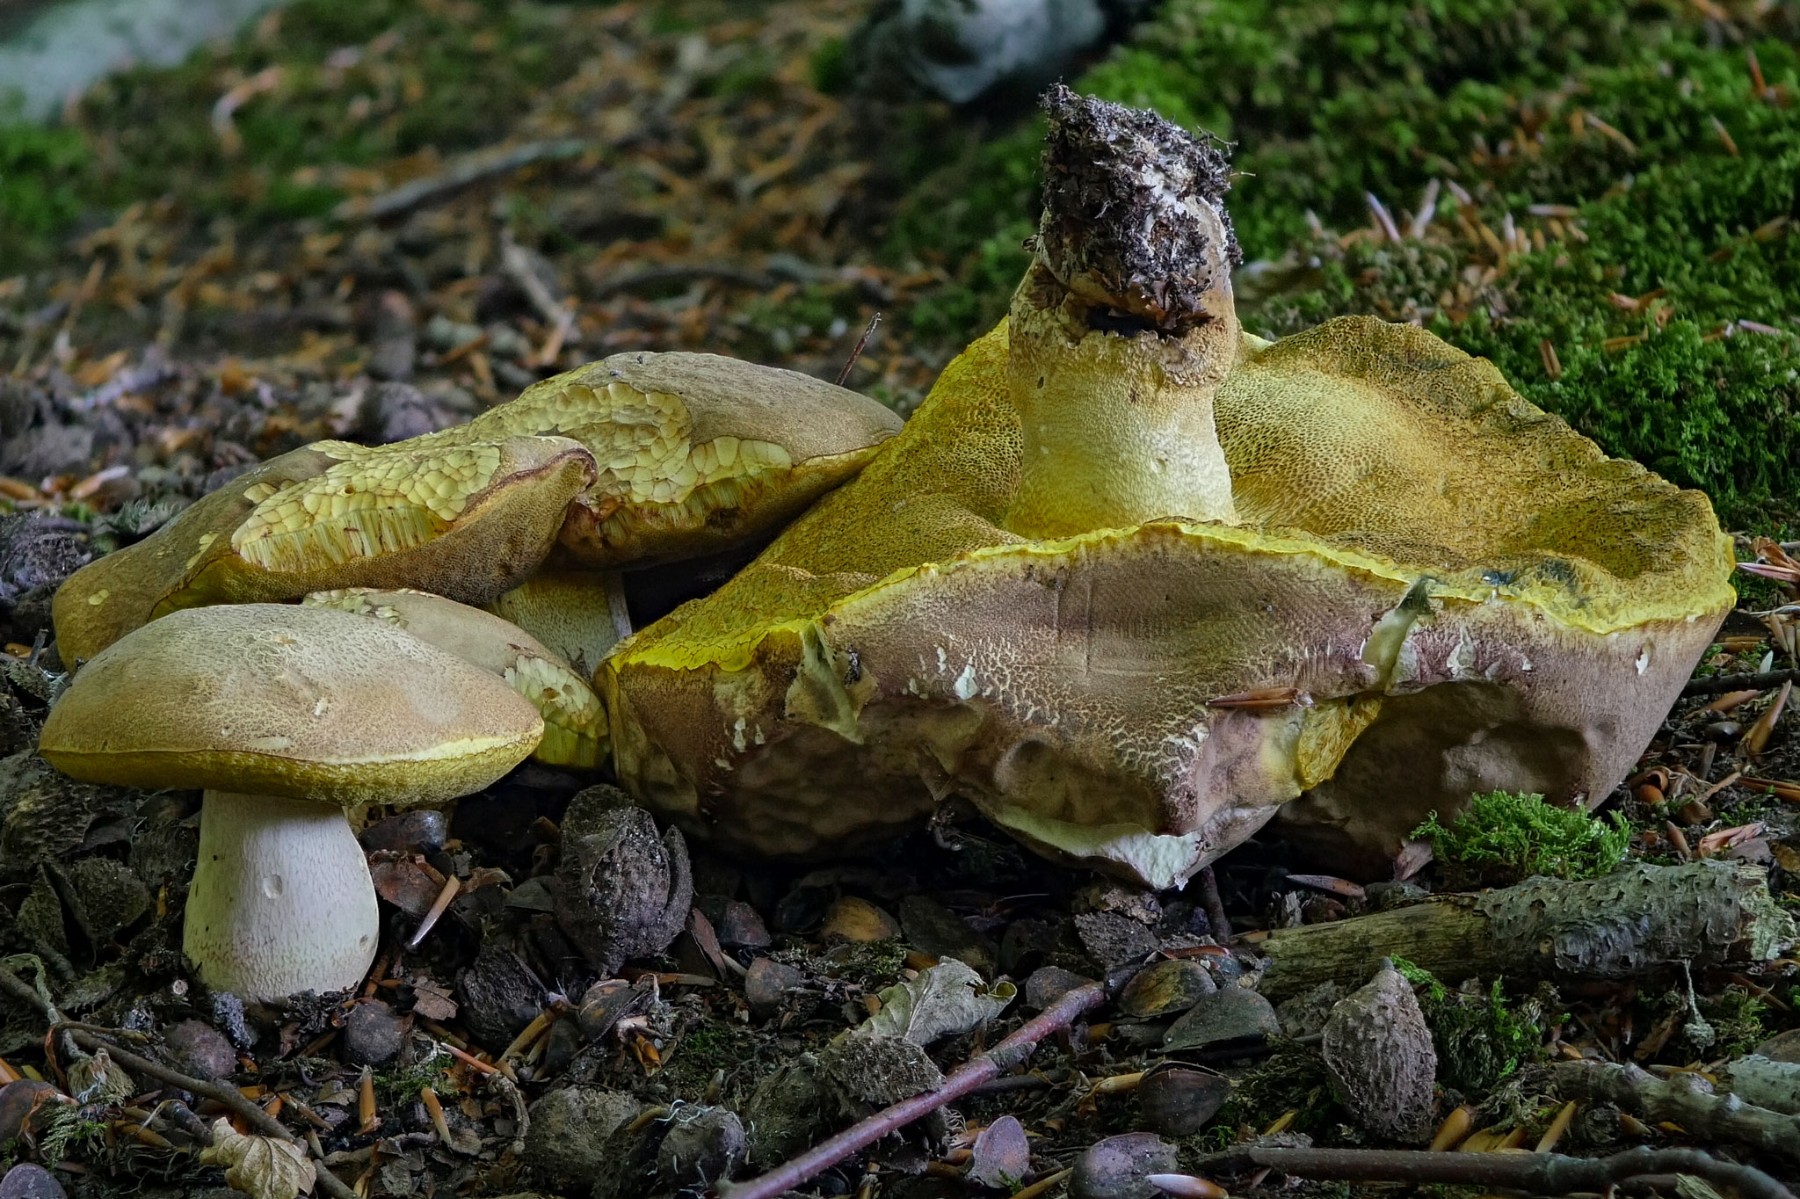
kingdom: Fungi
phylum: Basidiomycota
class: Agaricomycetes
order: Boletales
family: Boletaceae
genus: Butyriboletus
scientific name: Butyriboletus appendiculatus
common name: tenstokket rørhat
